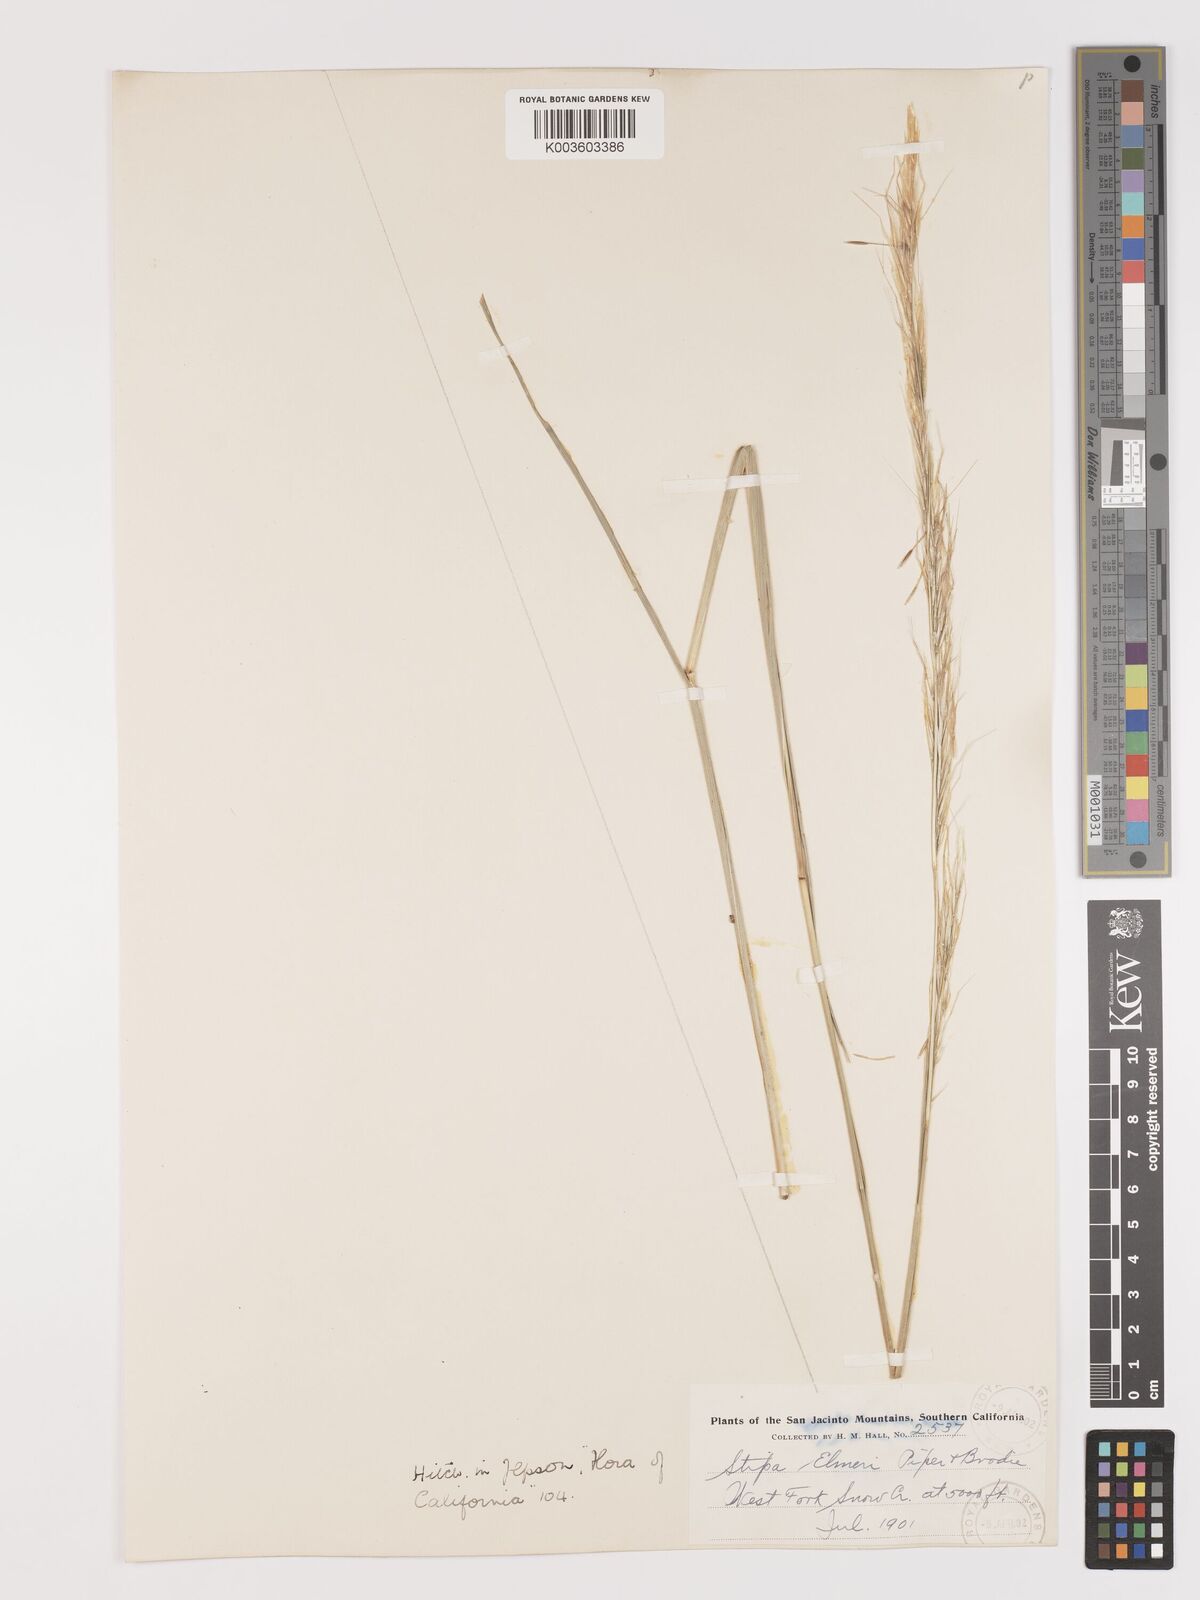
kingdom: Plantae
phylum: Tracheophyta
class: Liliopsida
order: Poales
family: Poaceae
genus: Eriocoma
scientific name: Eriocoma thurberiana
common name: Thurber's needlegrass
